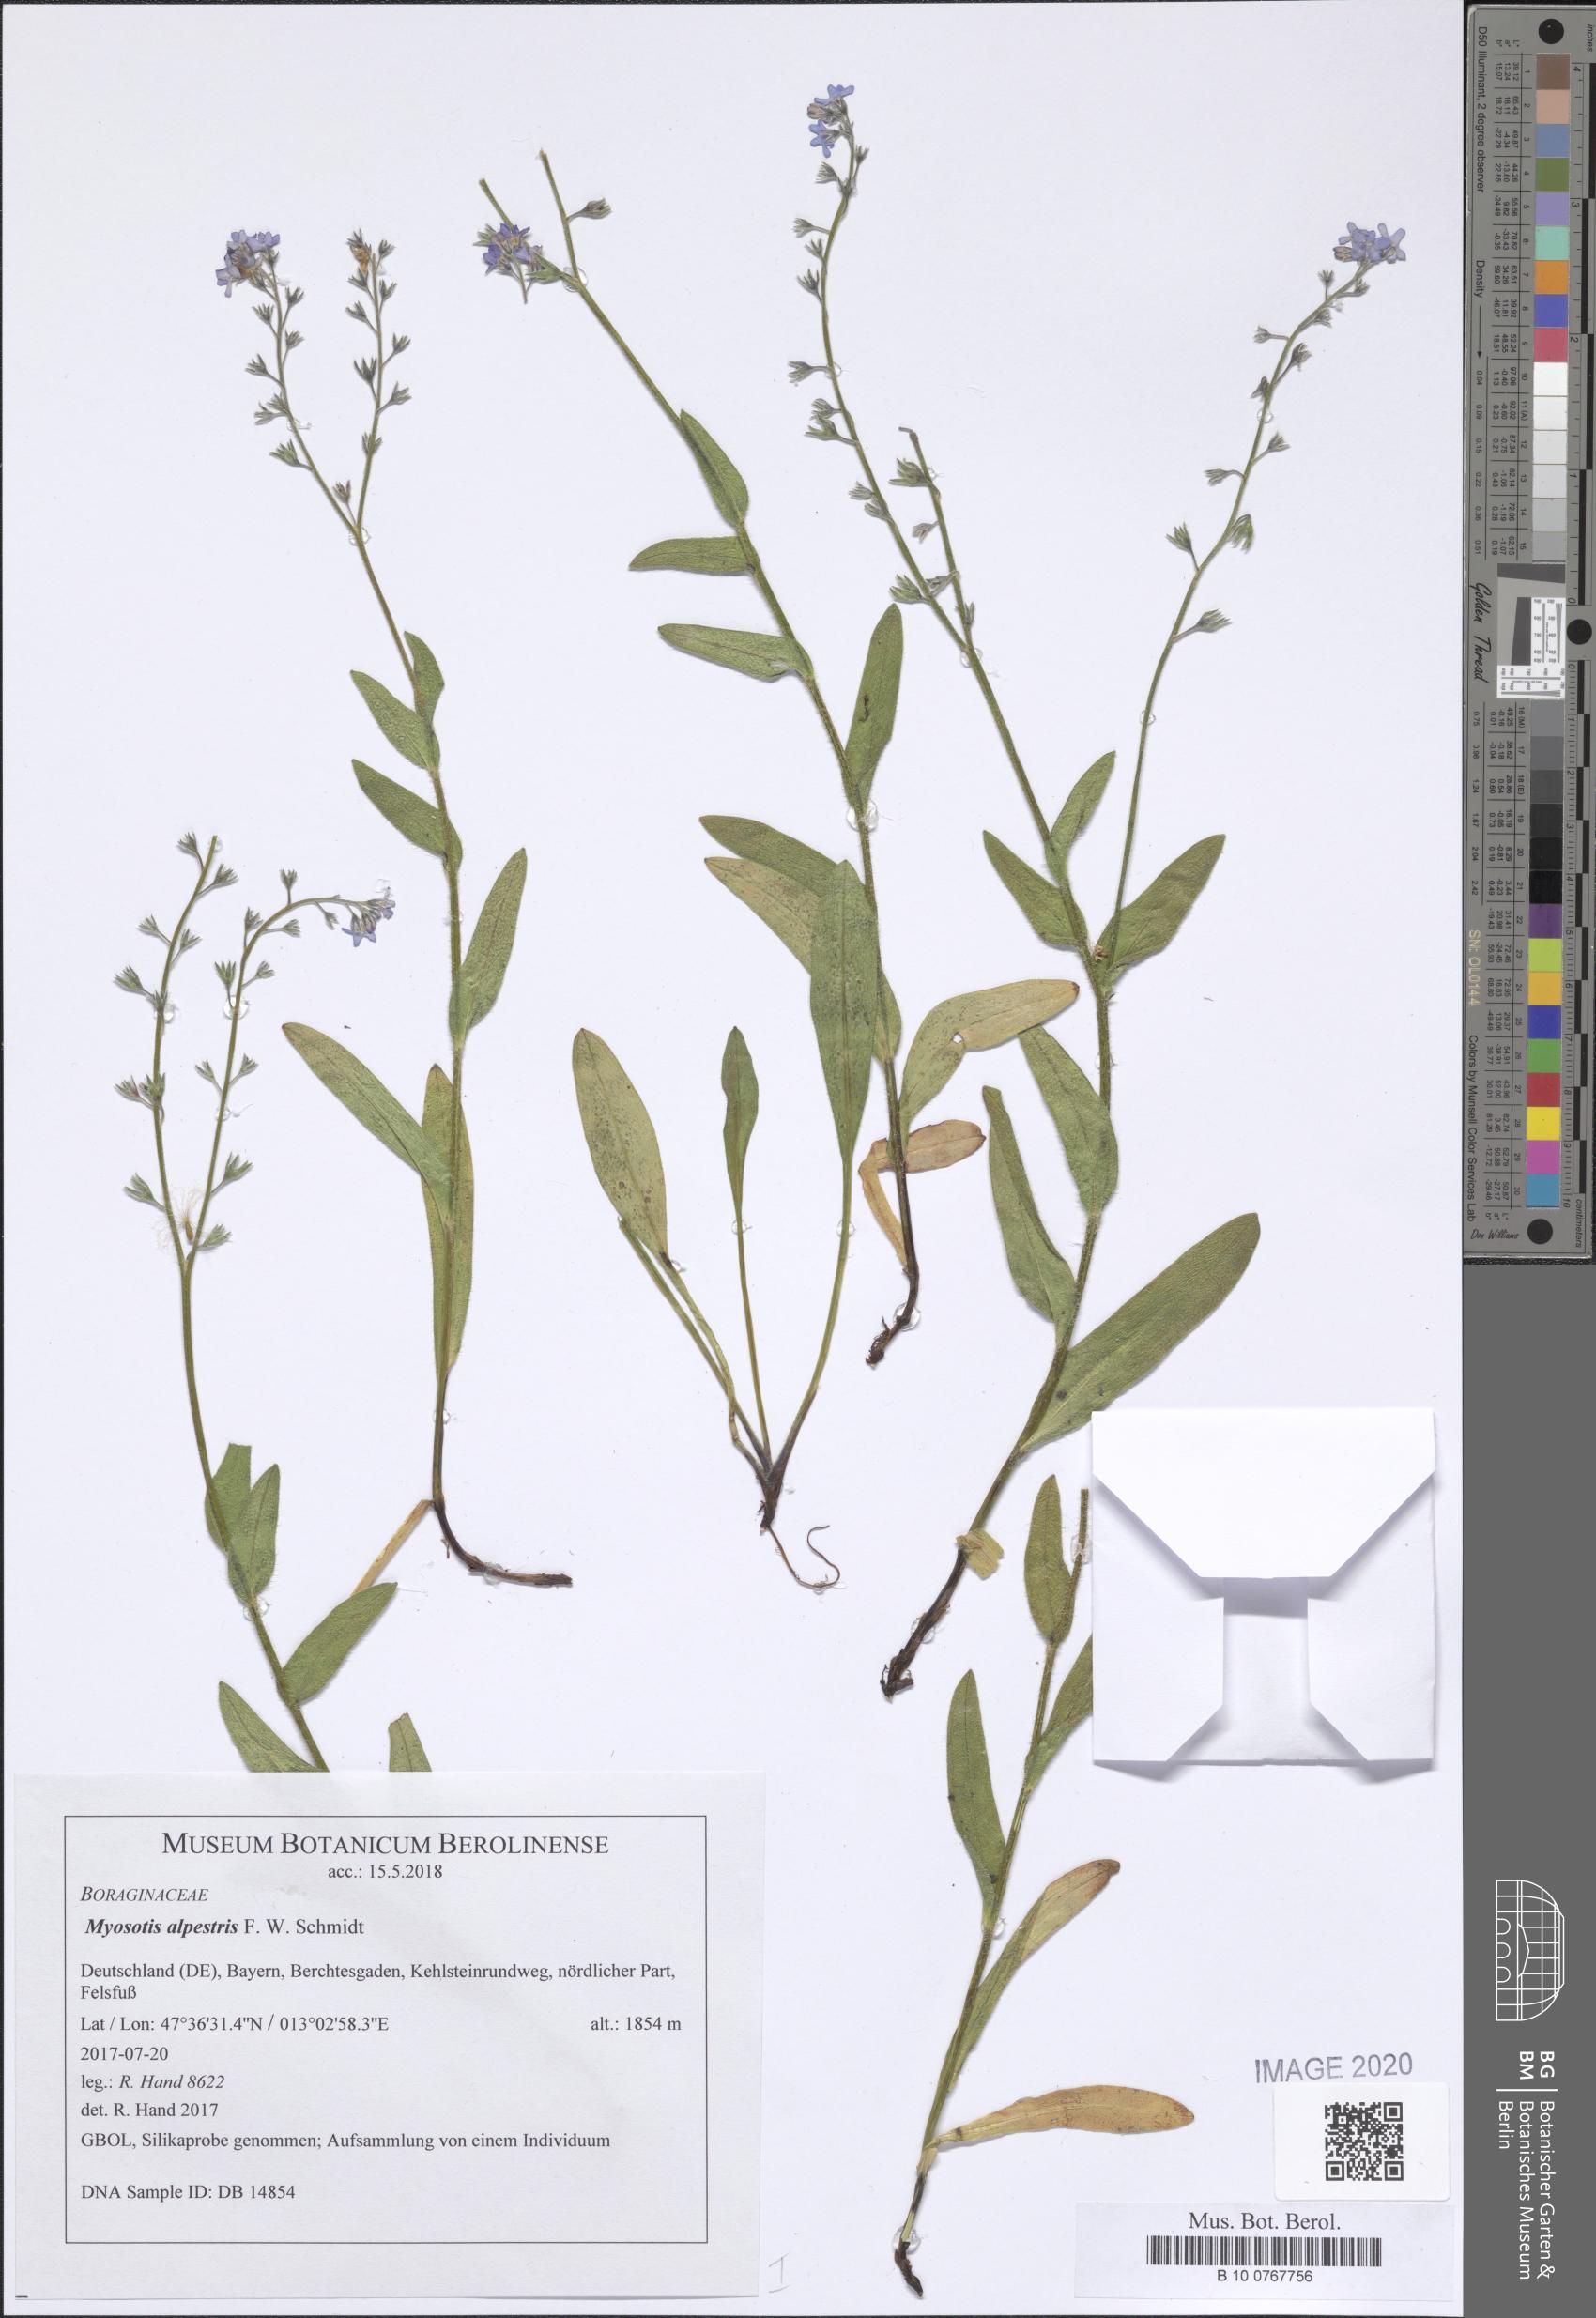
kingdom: Plantae
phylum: Tracheophyta
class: Magnoliopsida
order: Boraginales
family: Boraginaceae
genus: Myosotis
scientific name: Myosotis alpestris
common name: Alpine forget-me-not
